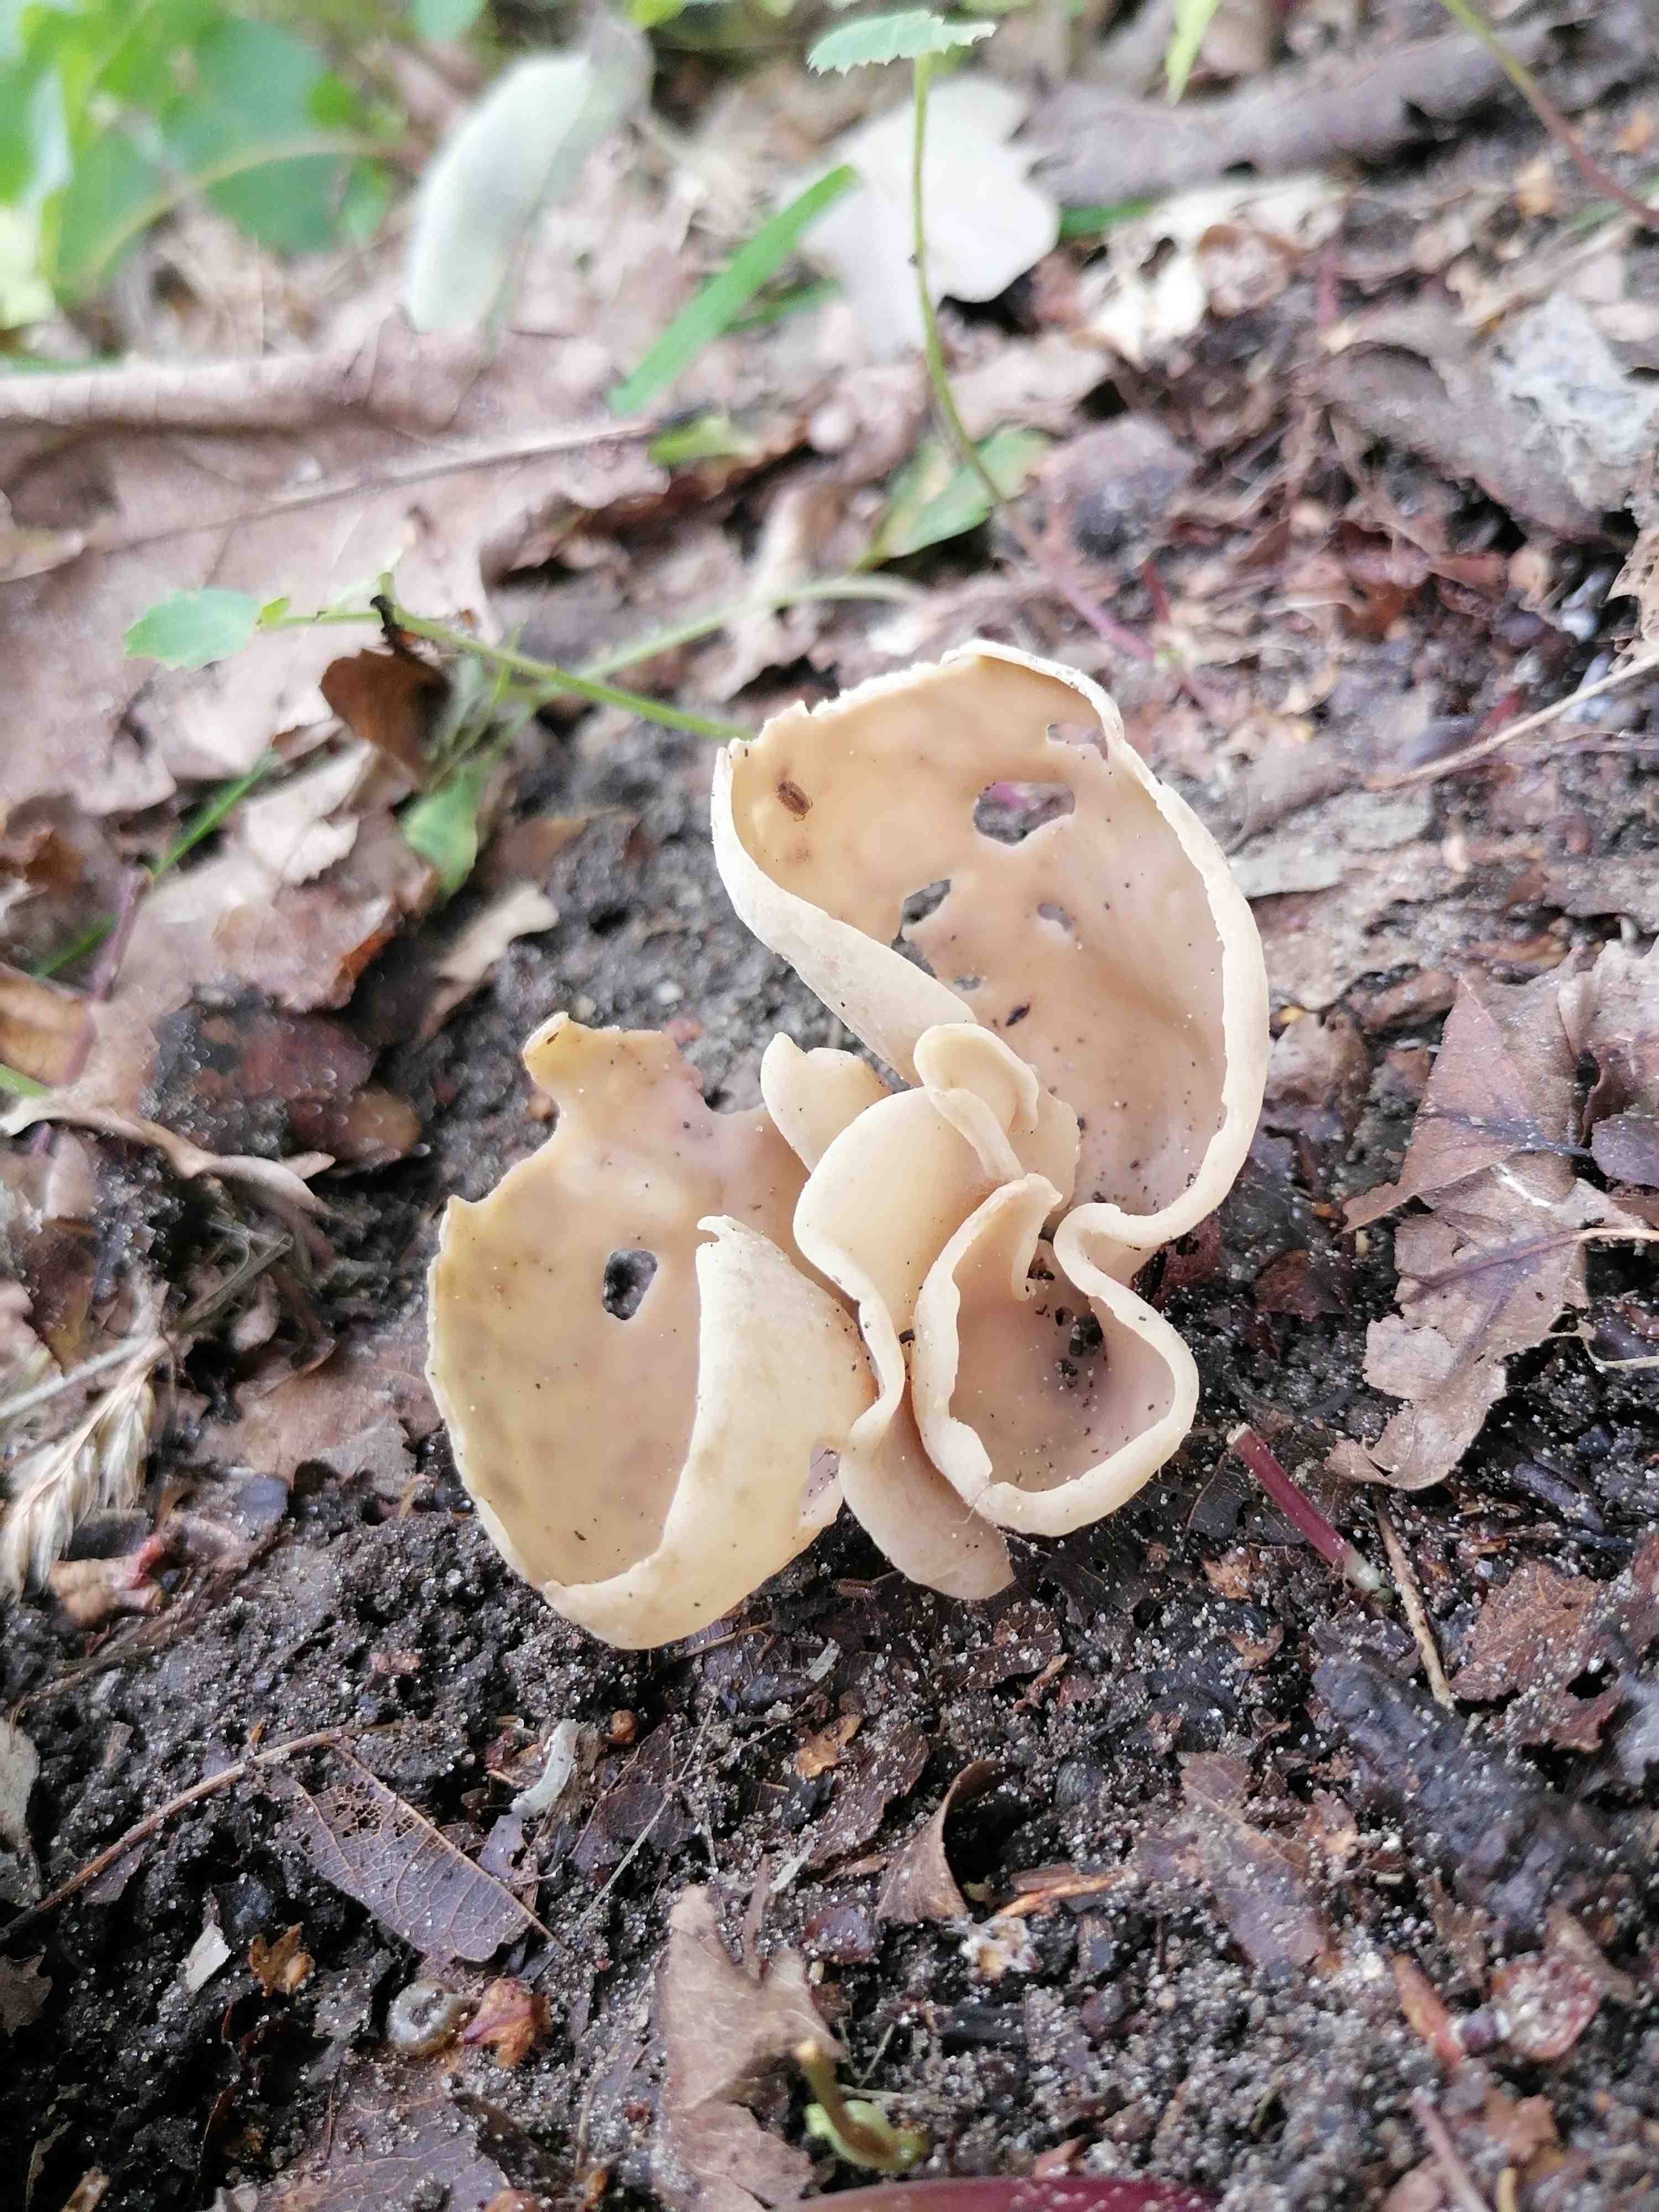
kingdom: Fungi
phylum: Ascomycota
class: Pezizomycetes
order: Pezizales
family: Otideaceae
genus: Otidea
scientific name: Otidea alutacea
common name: læder-ørebæger
